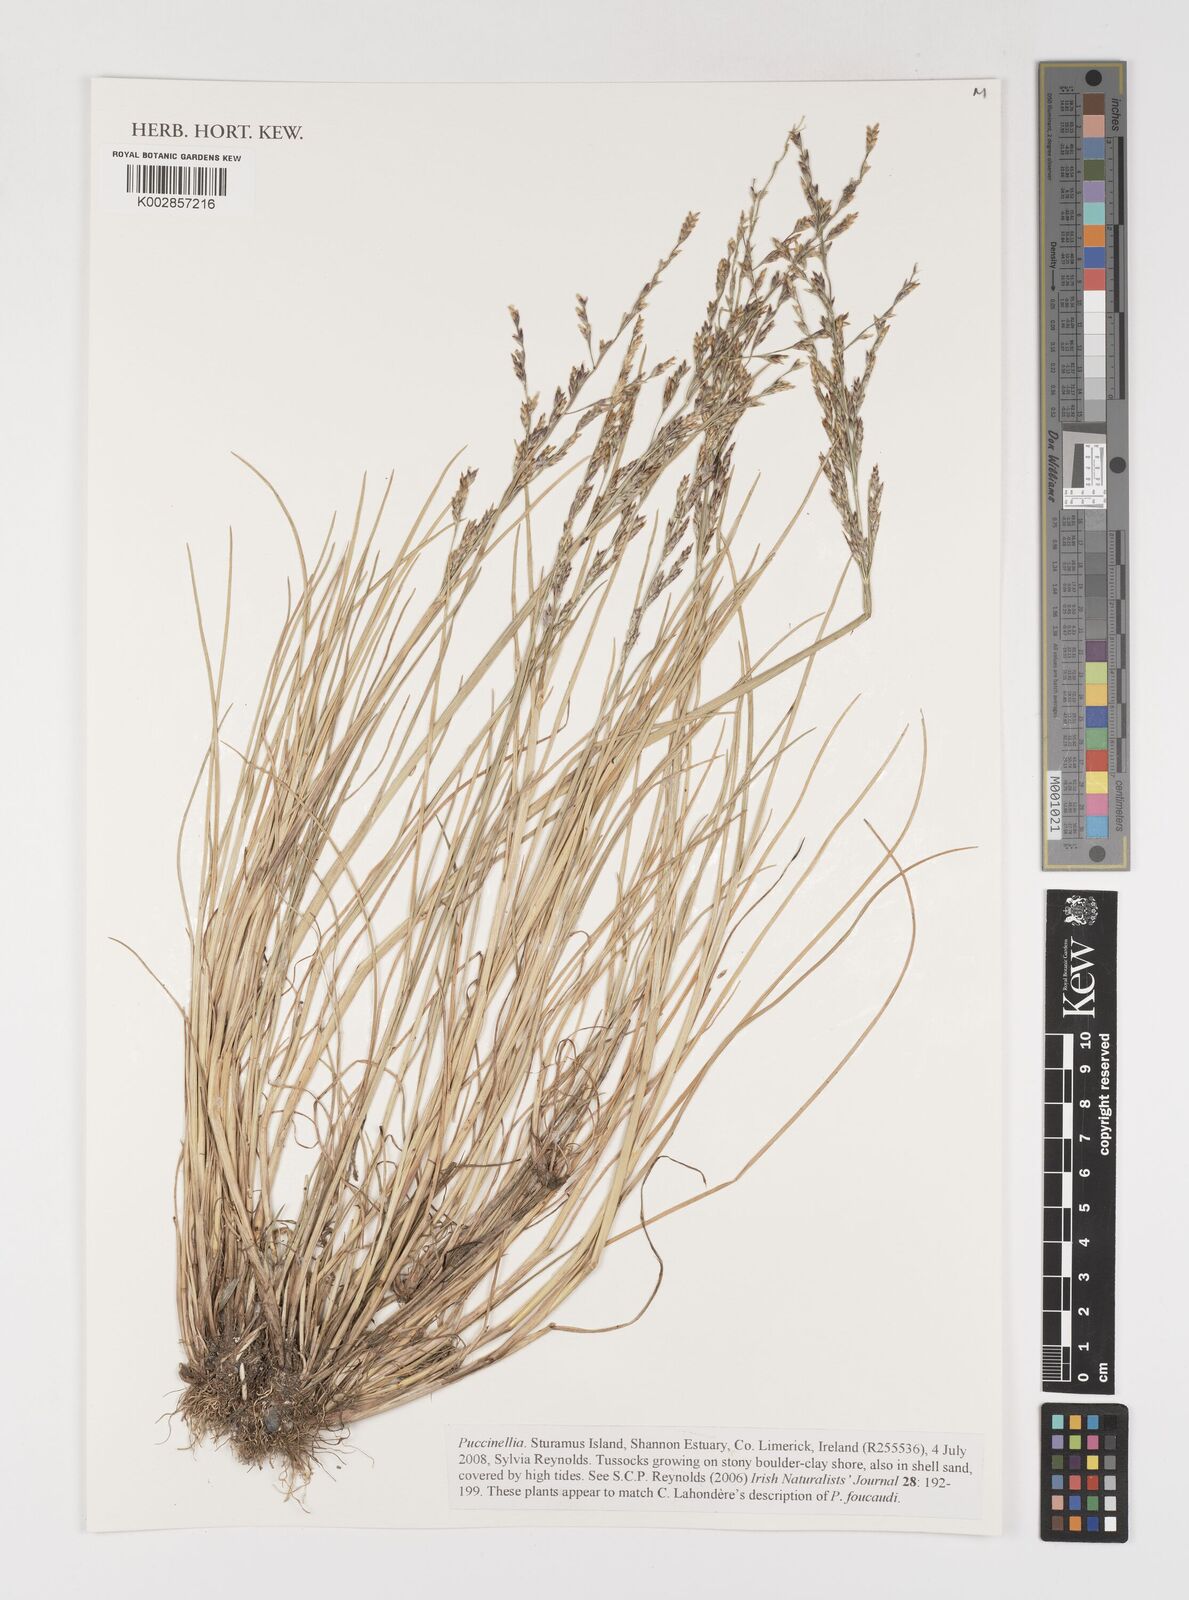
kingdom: Plantae
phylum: Tracheophyta
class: Liliopsida
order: Poales
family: Poaceae
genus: Puccinellia
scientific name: Puccinellia
